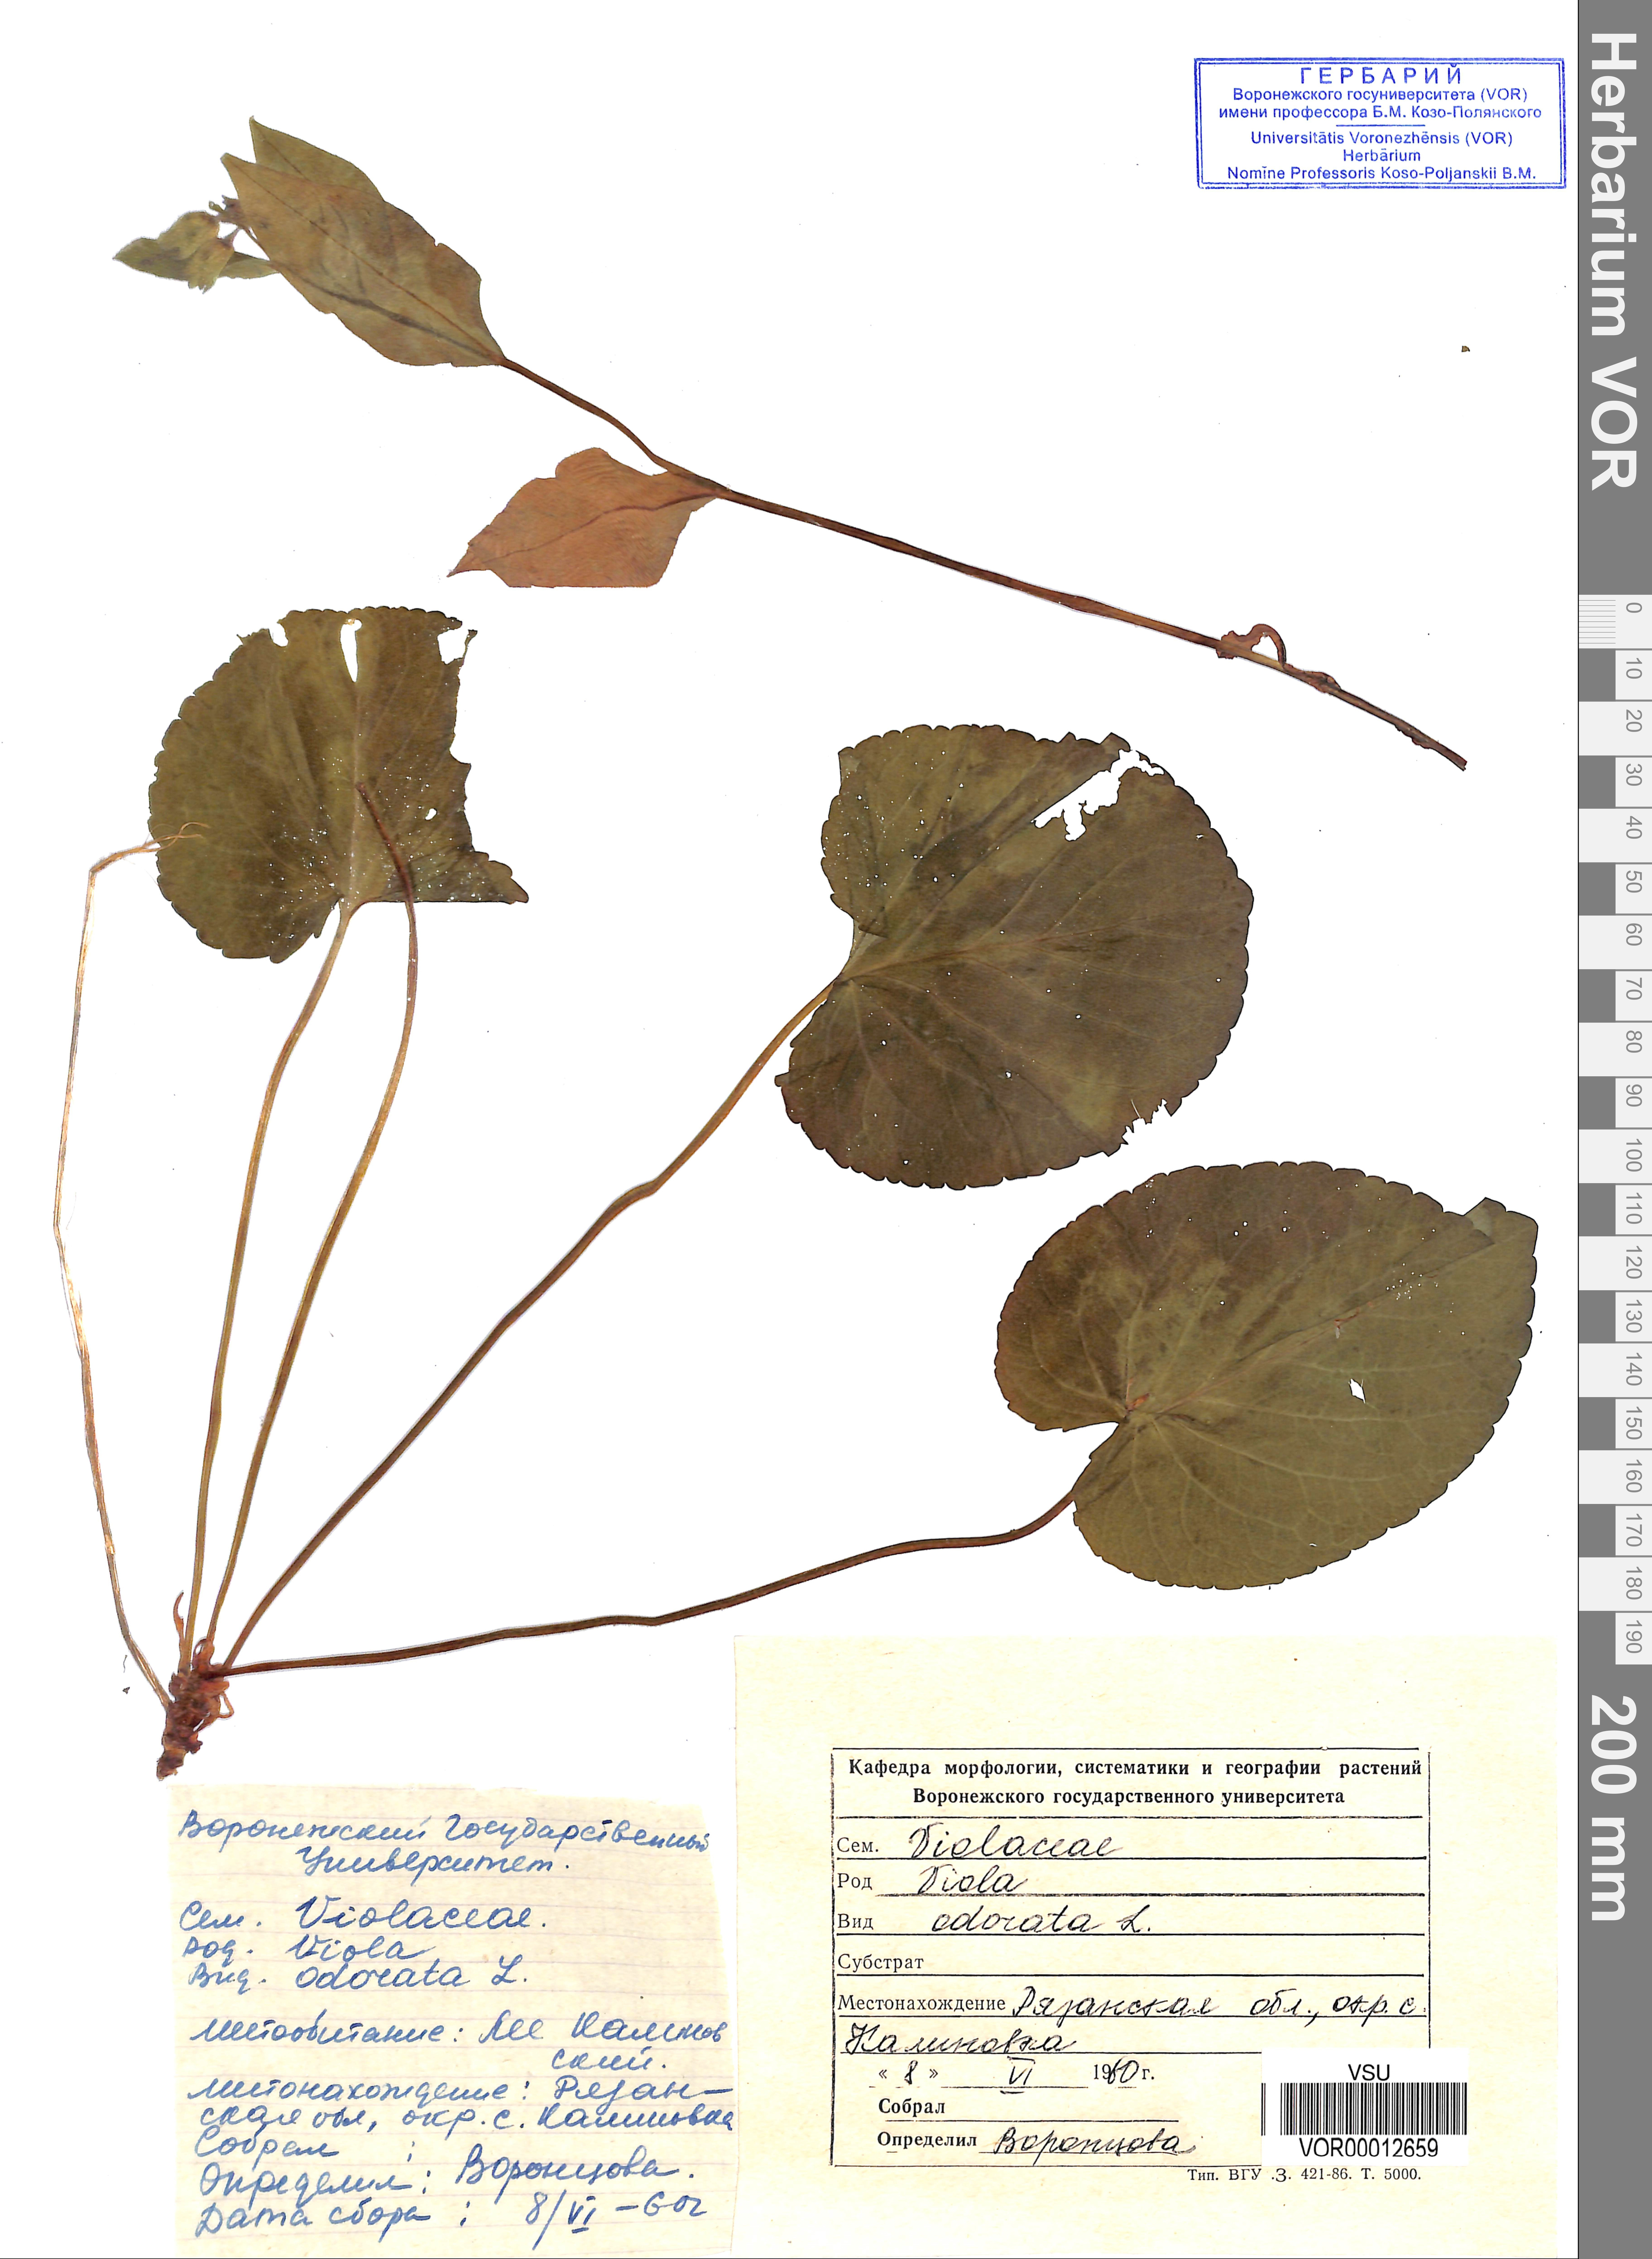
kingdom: Plantae
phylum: Tracheophyta
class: Magnoliopsida
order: Malpighiales
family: Violaceae
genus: Viola
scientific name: Viola odorata
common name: Sweet violet
